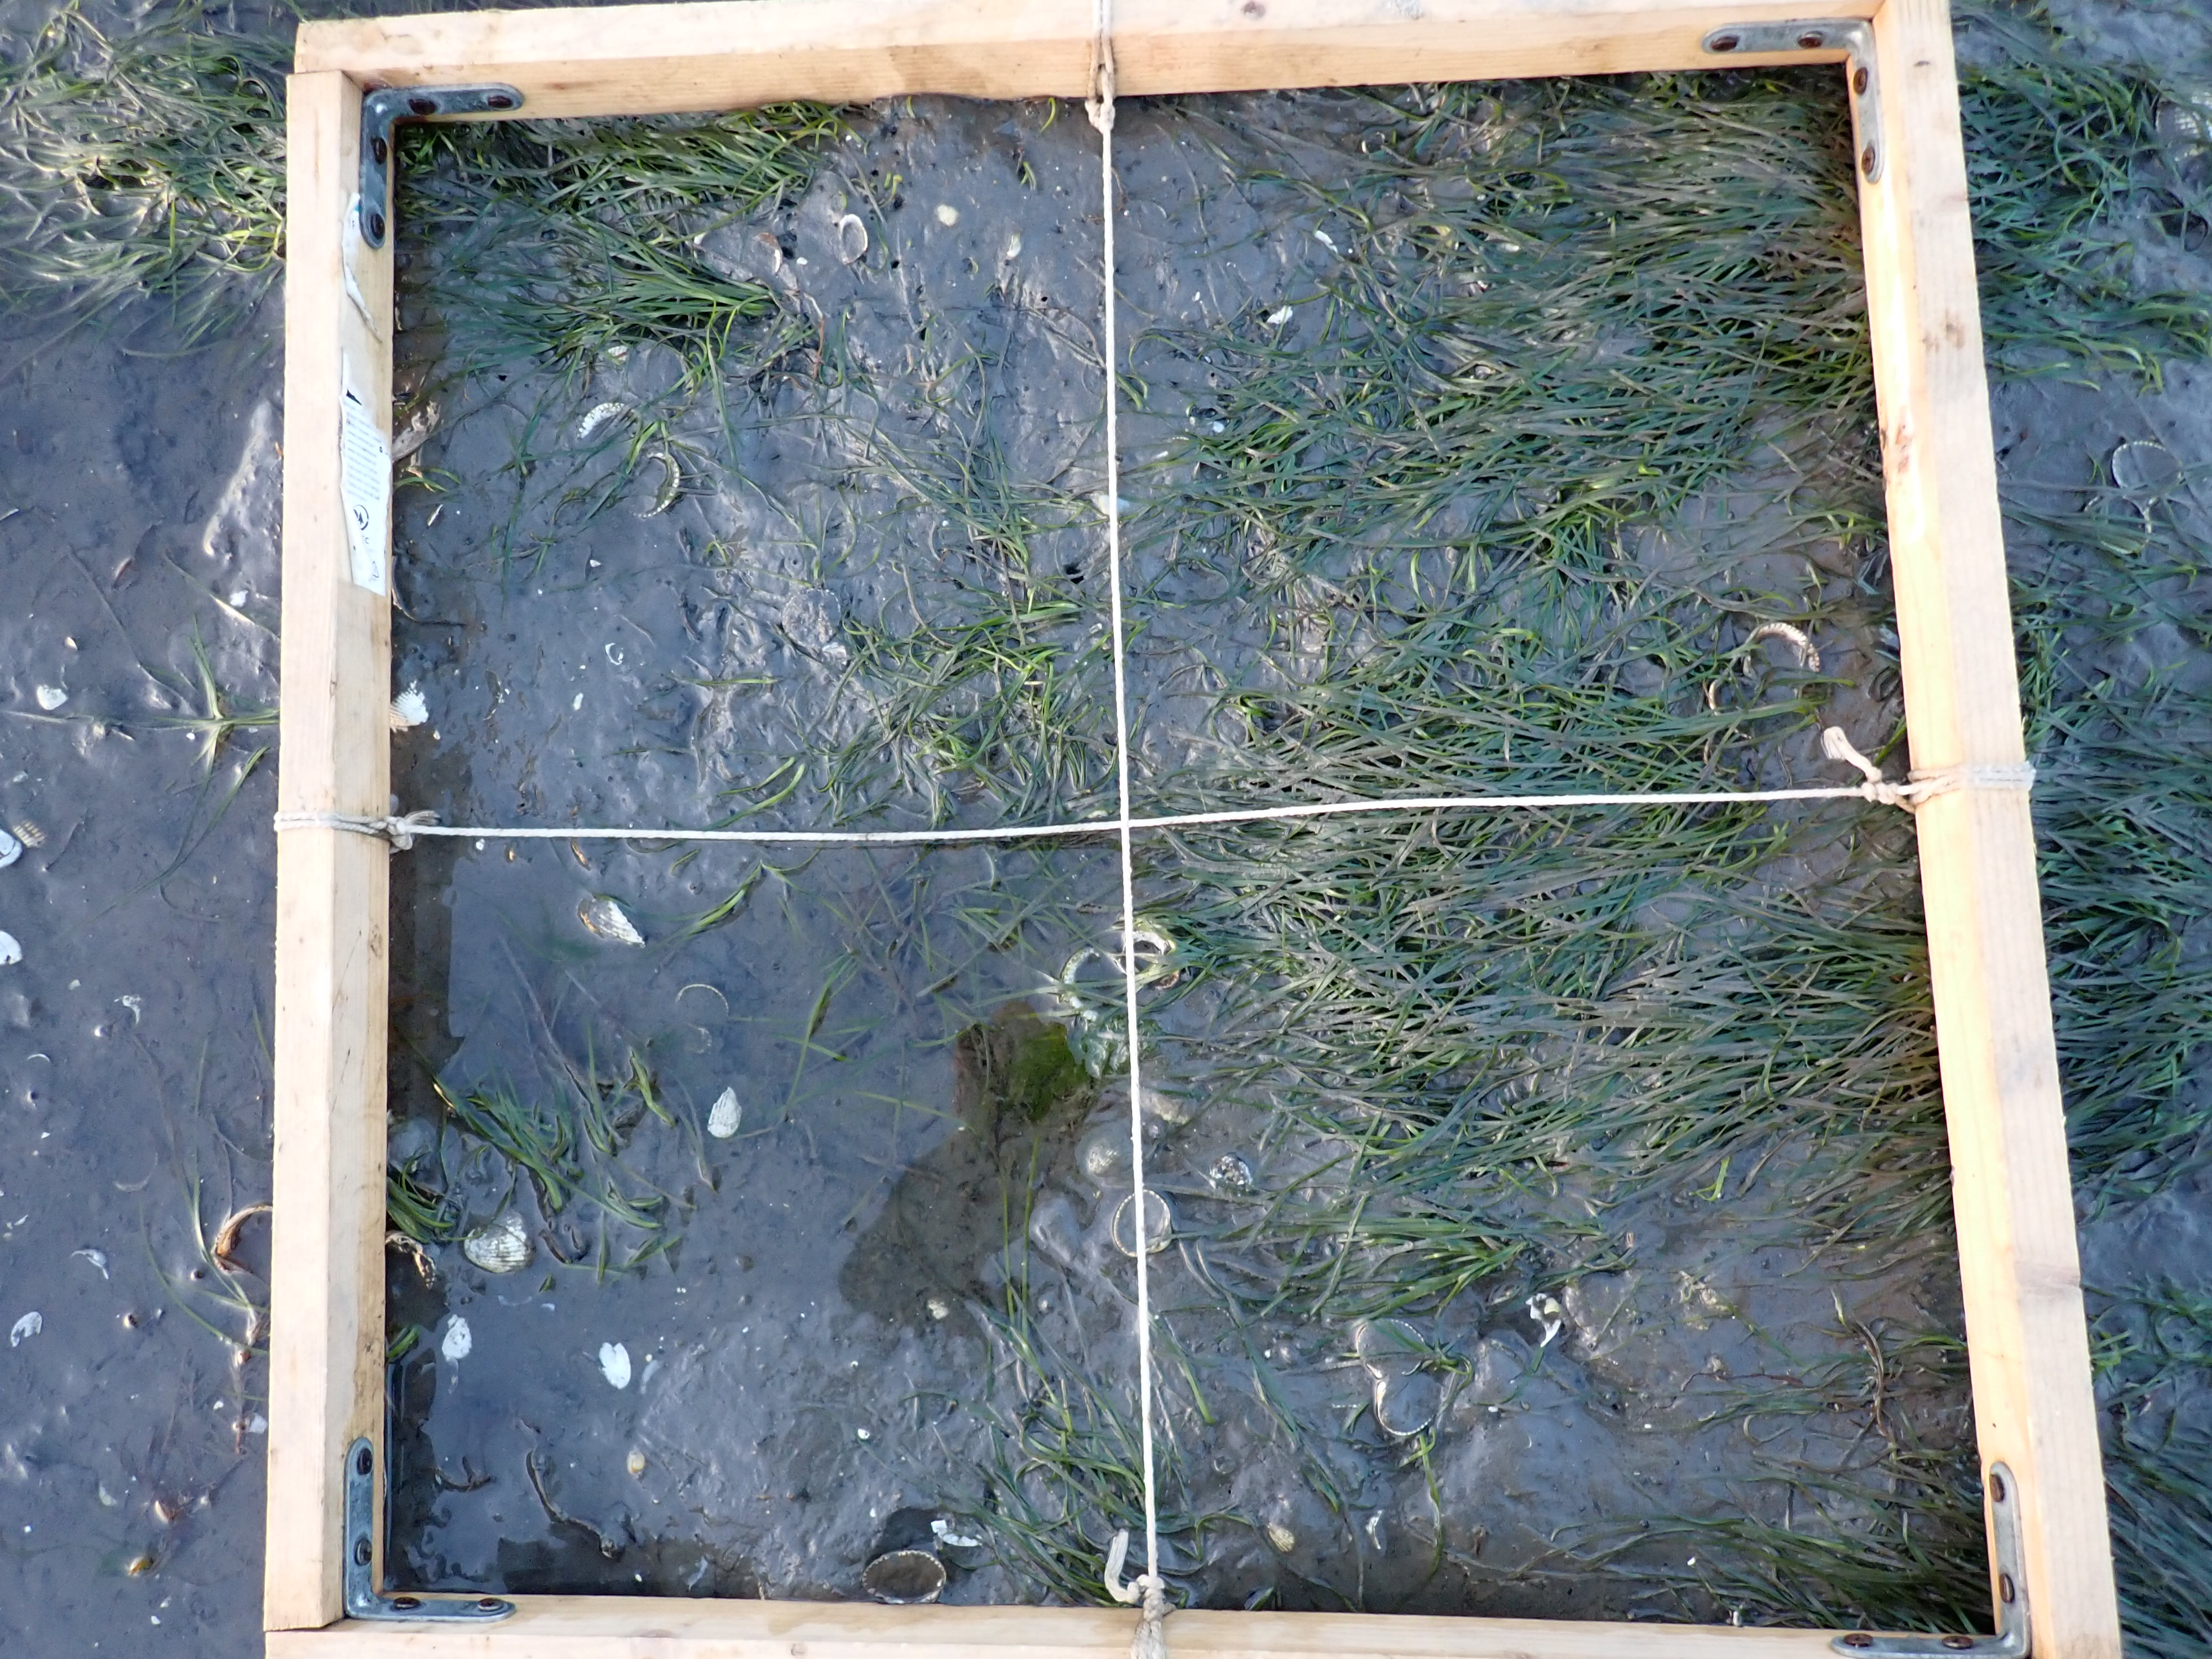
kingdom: Plantae
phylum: Tracheophyta
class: Liliopsida
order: Alismatales
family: Zosteraceae
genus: Zostera
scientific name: Zostera noltii
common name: Dwarf eelgrass
